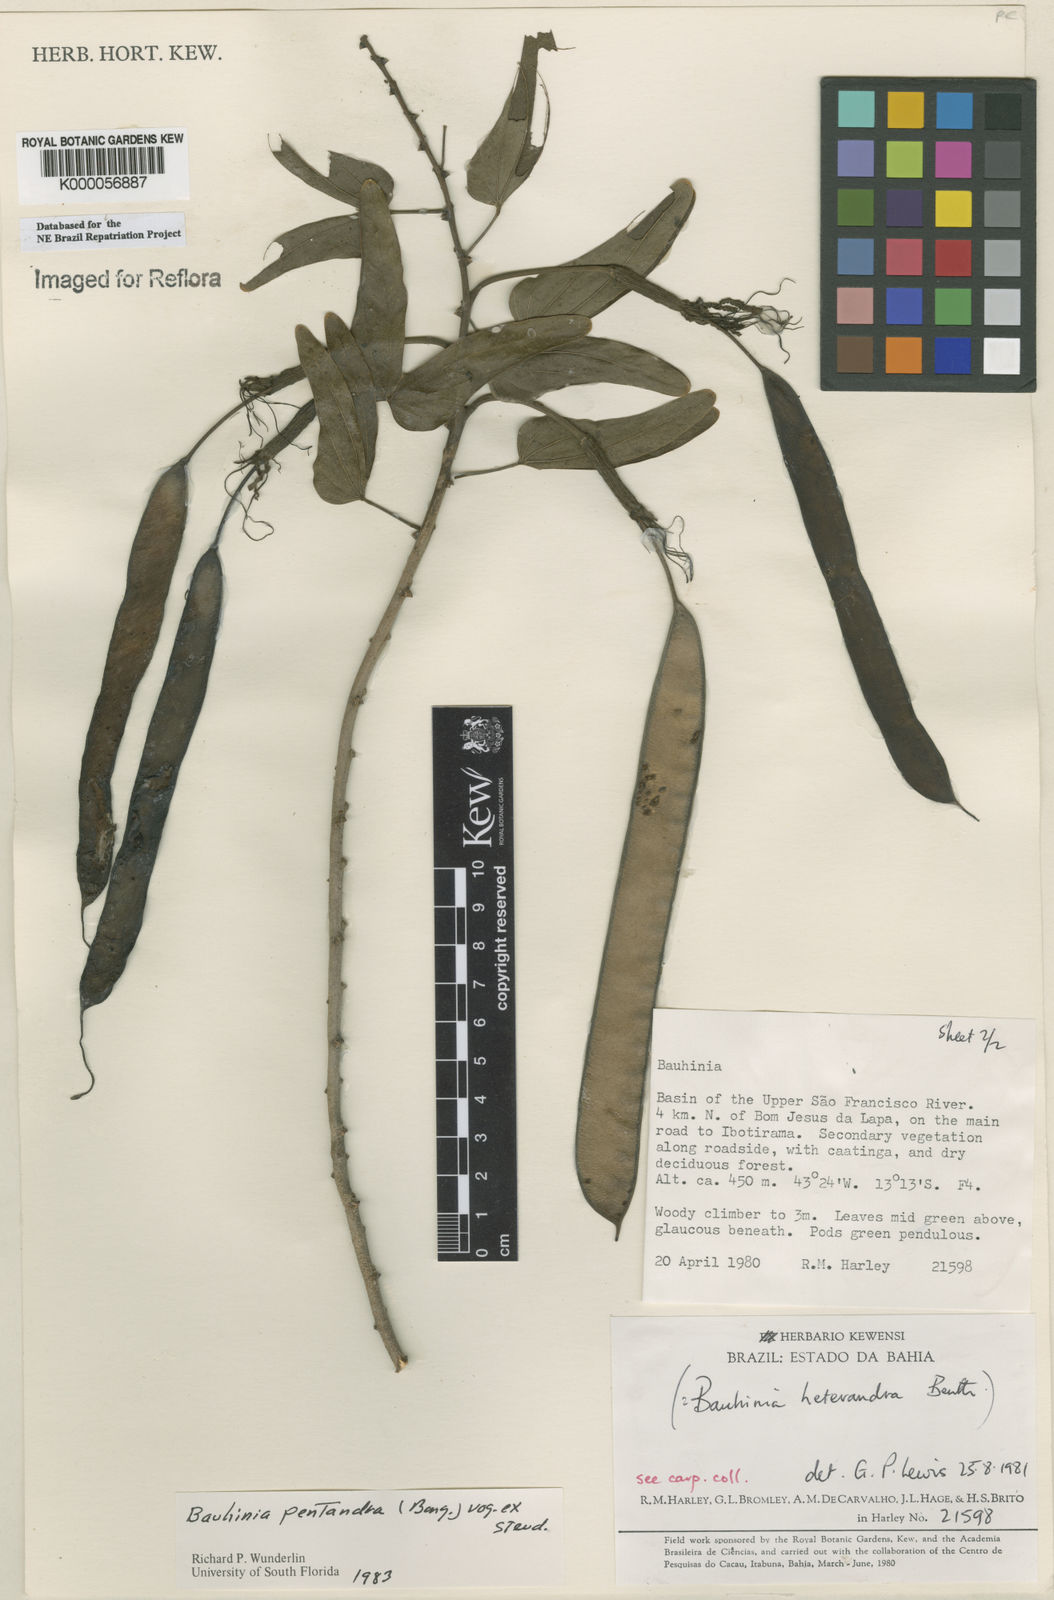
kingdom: Plantae
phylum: Tracheophyta
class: Magnoliopsida
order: Fabales
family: Fabaceae
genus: Bauhinia
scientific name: Bauhinia
